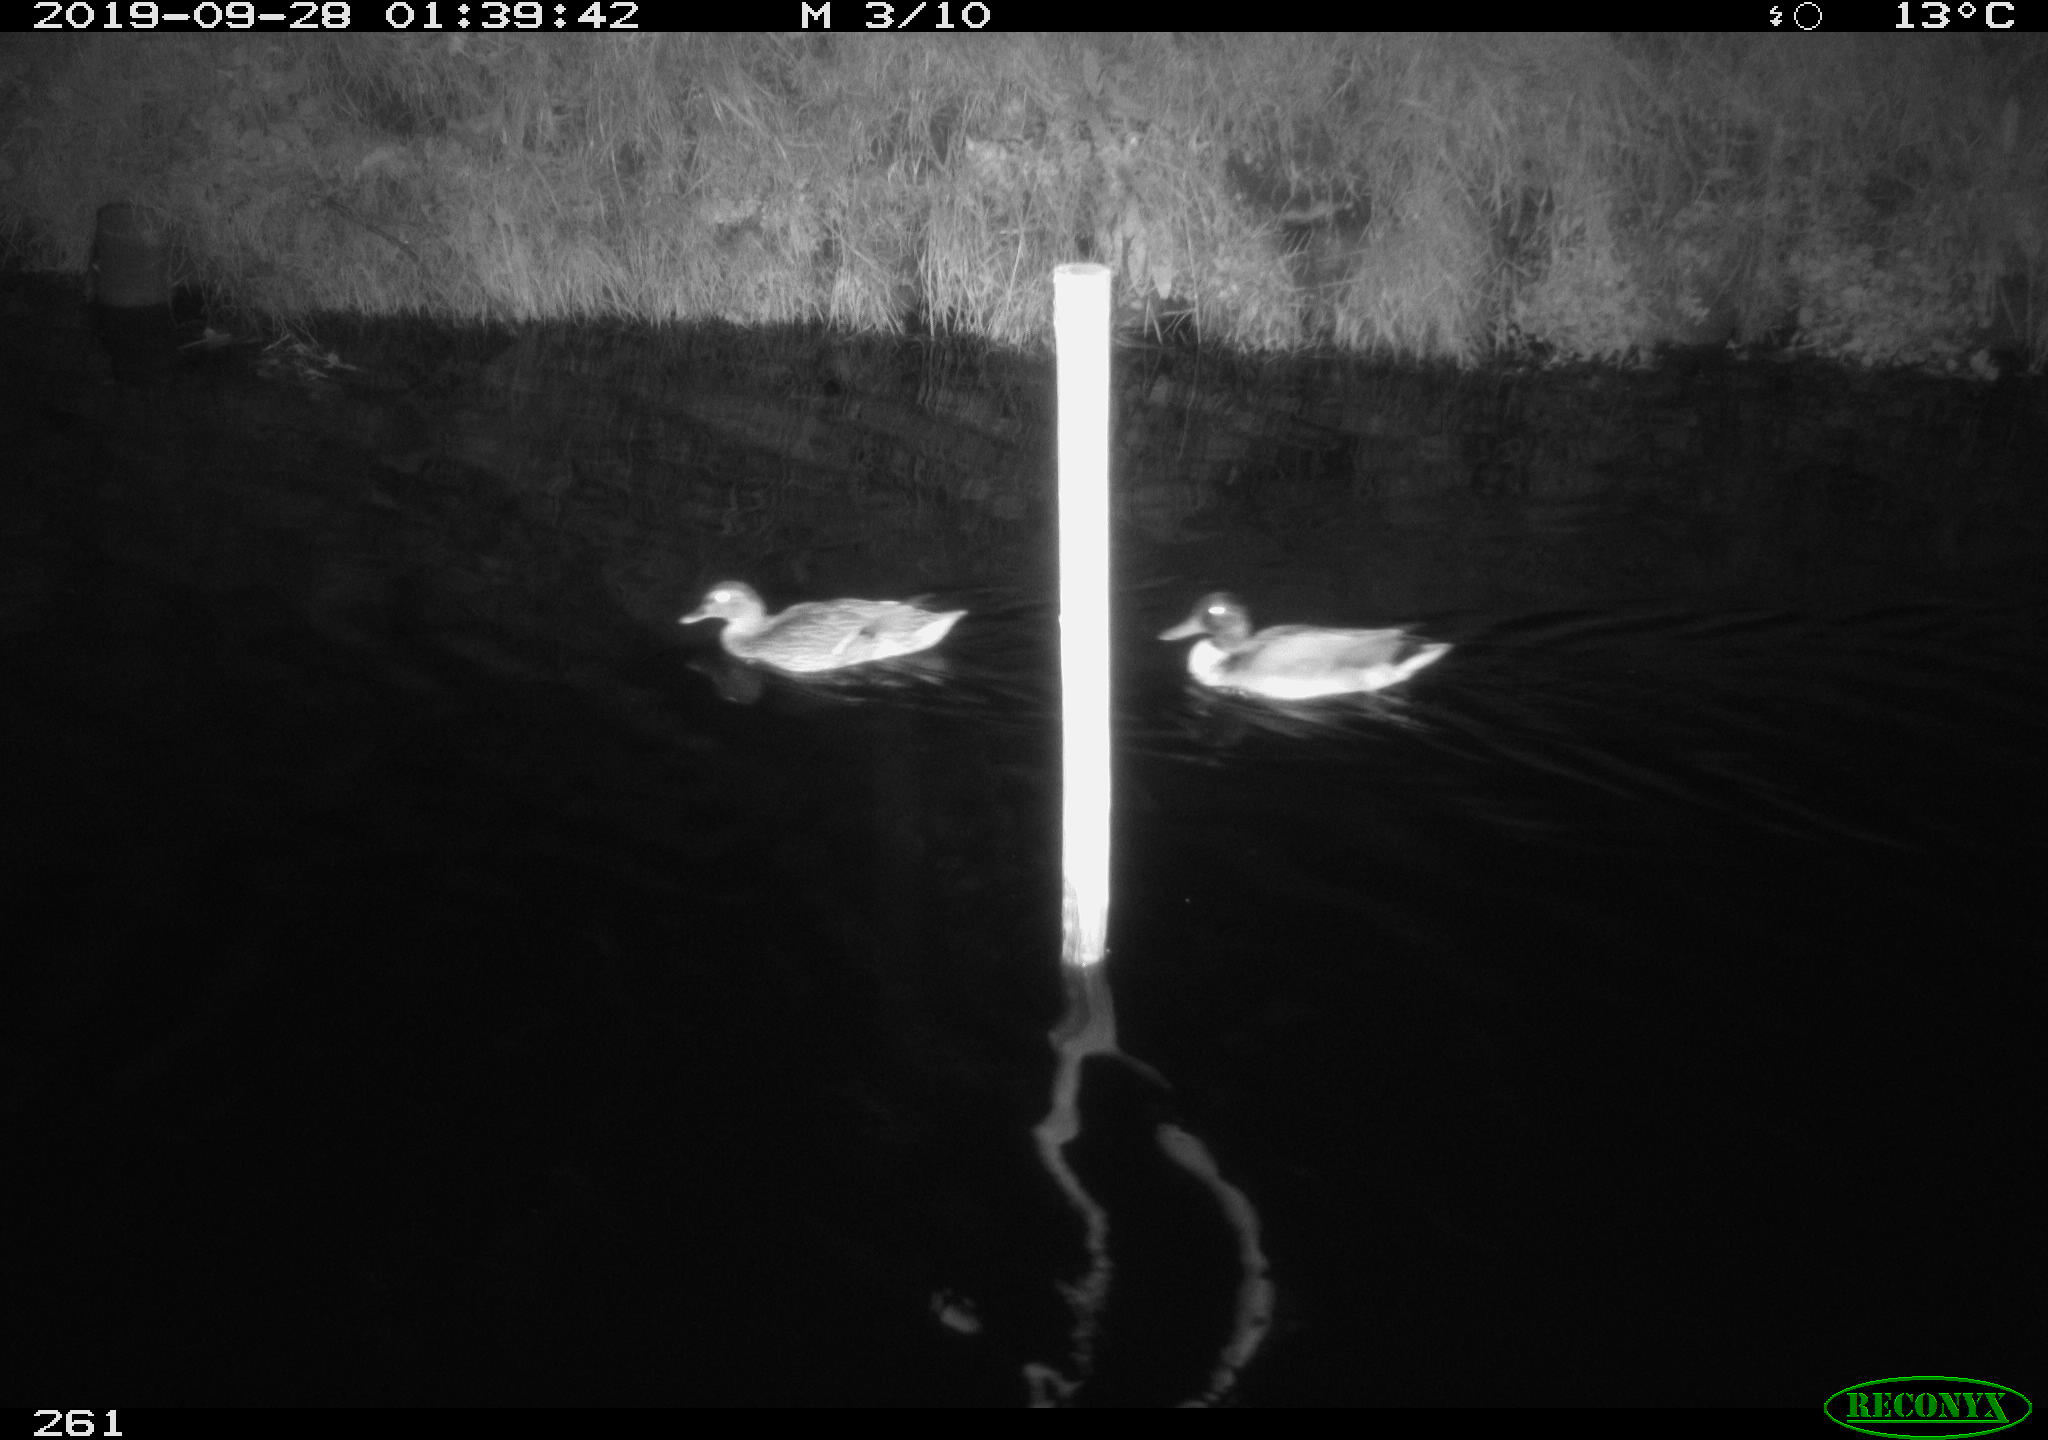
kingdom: Animalia
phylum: Chordata
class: Aves
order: Anseriformes
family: Anatidae
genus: Anas
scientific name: Anas platyrhynchos
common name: Mallard
